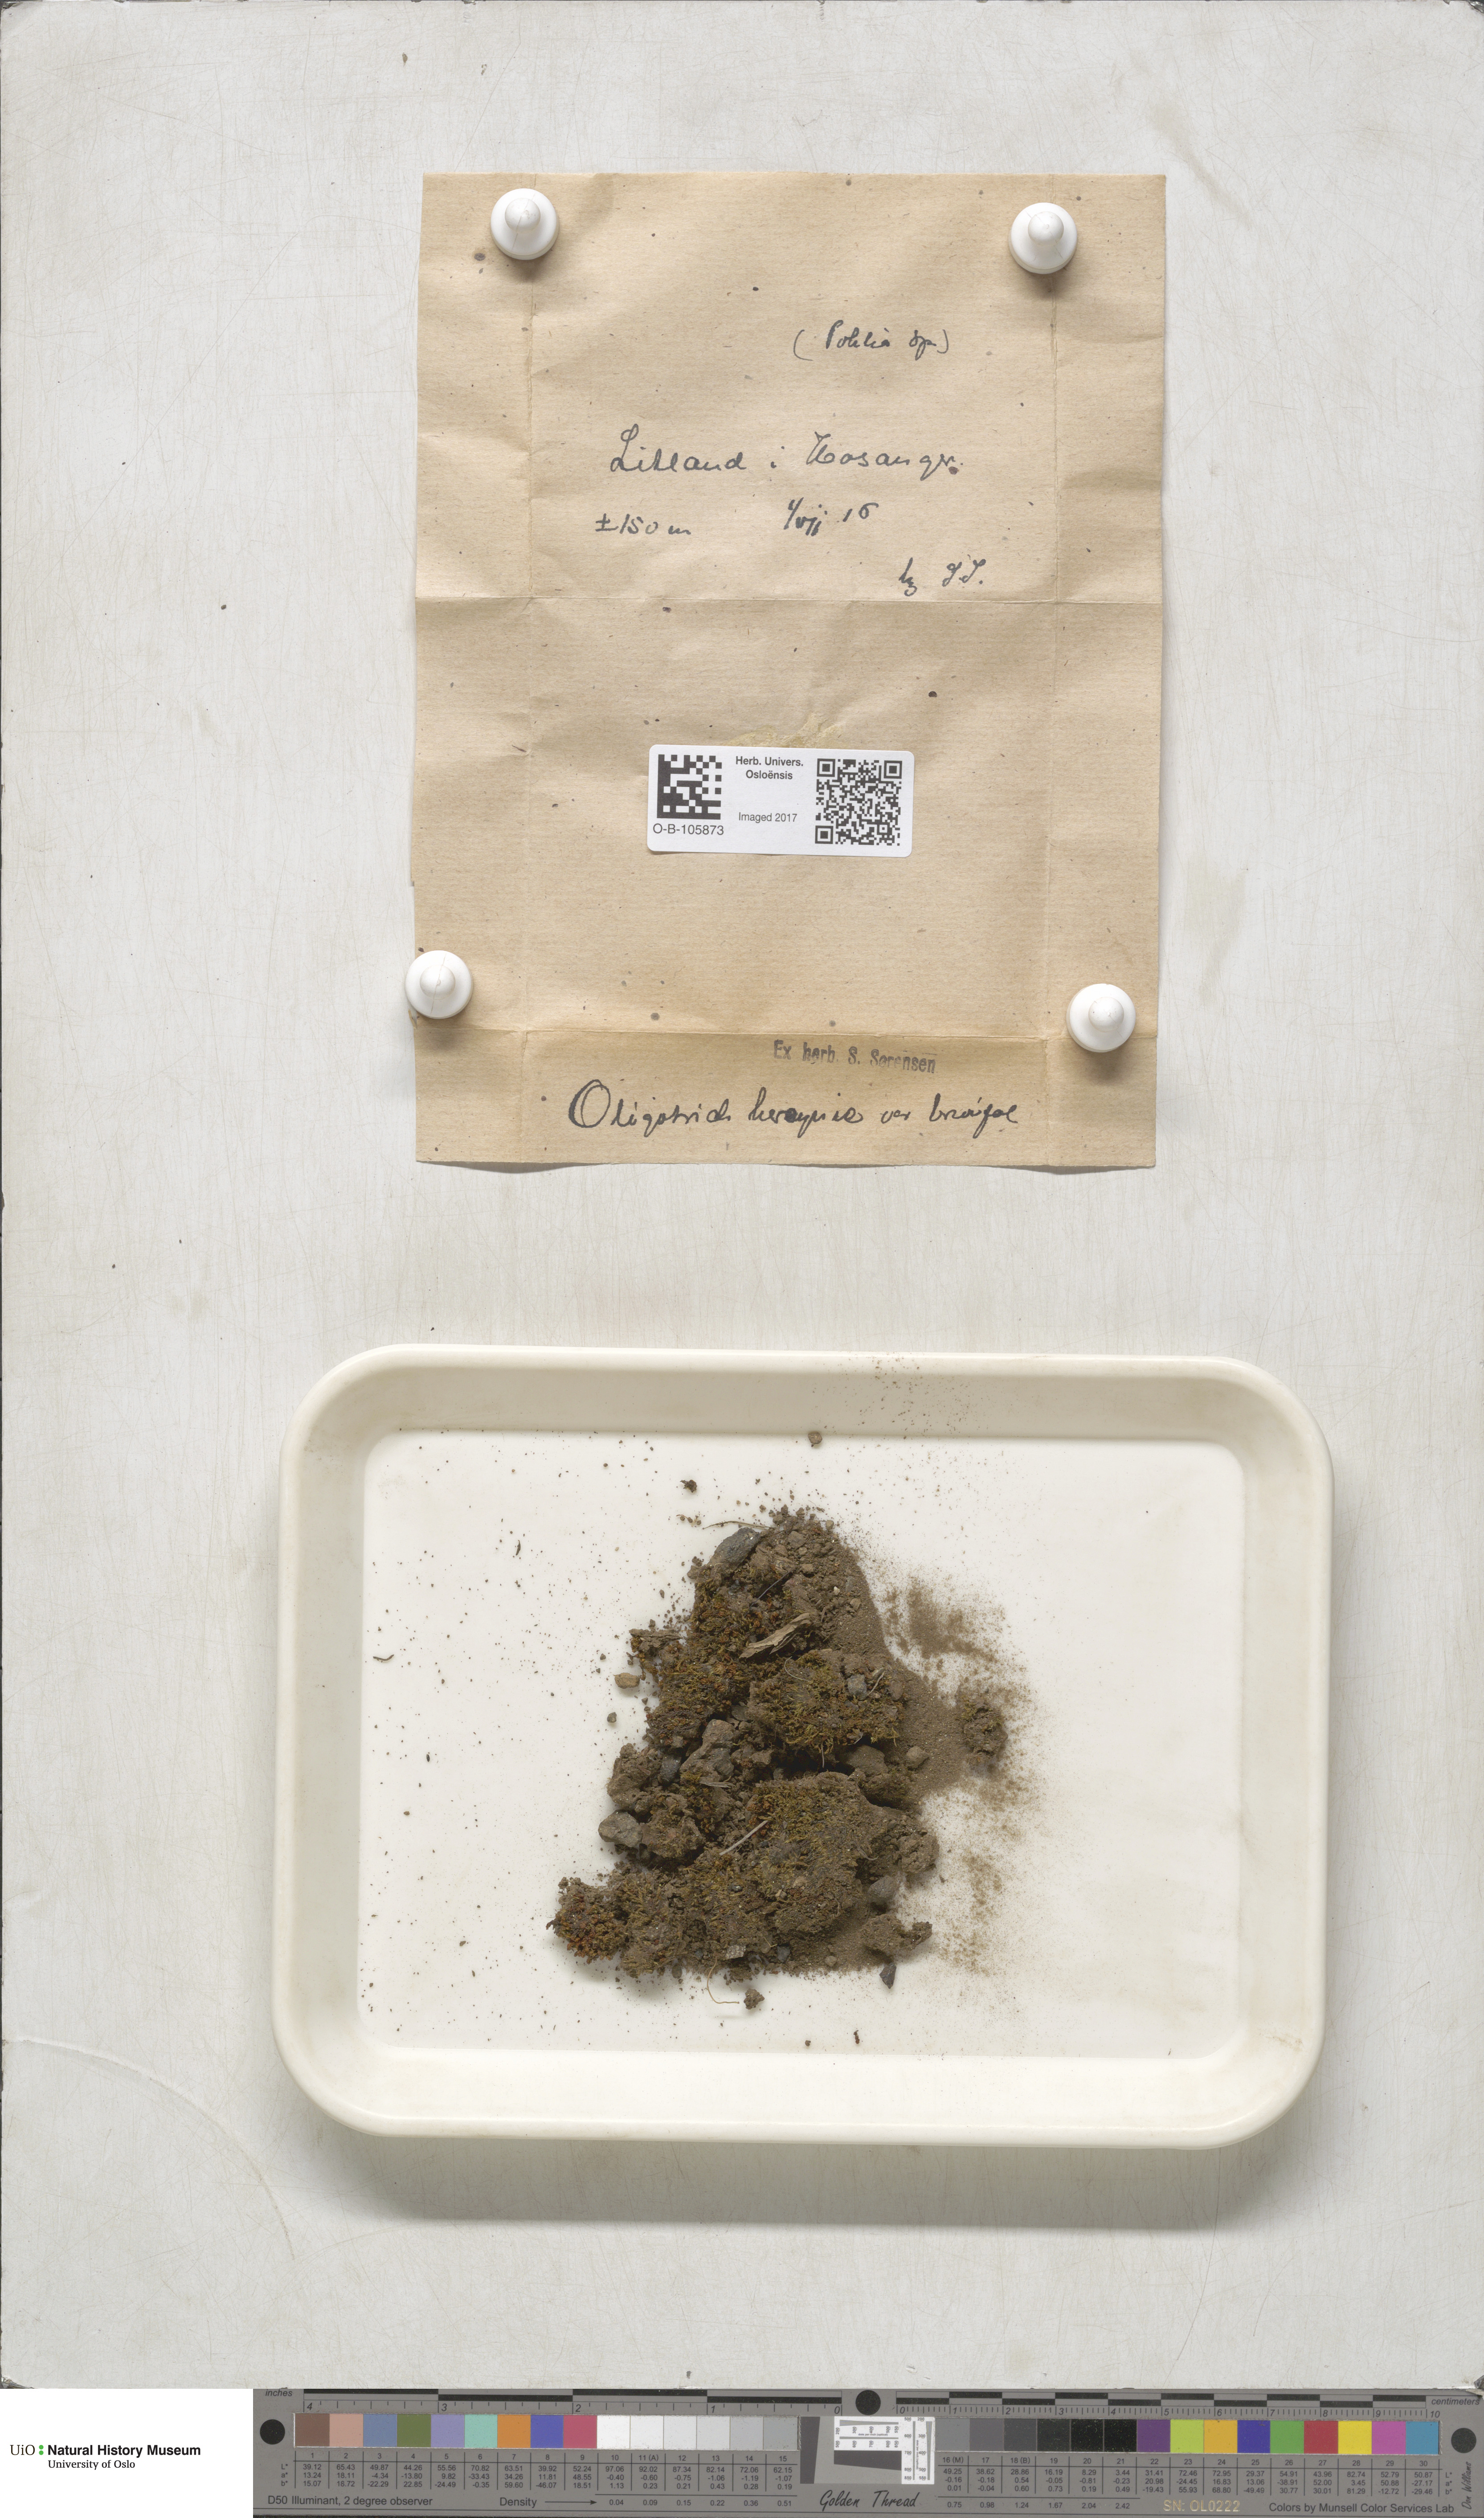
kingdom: Plantae
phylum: Bryophyta
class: Polytrichopsida
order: Polytrichales
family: Polytrichaceae
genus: Oligotrichum
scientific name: Oligotrichum hercynicum
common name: Hercynian hair moss
